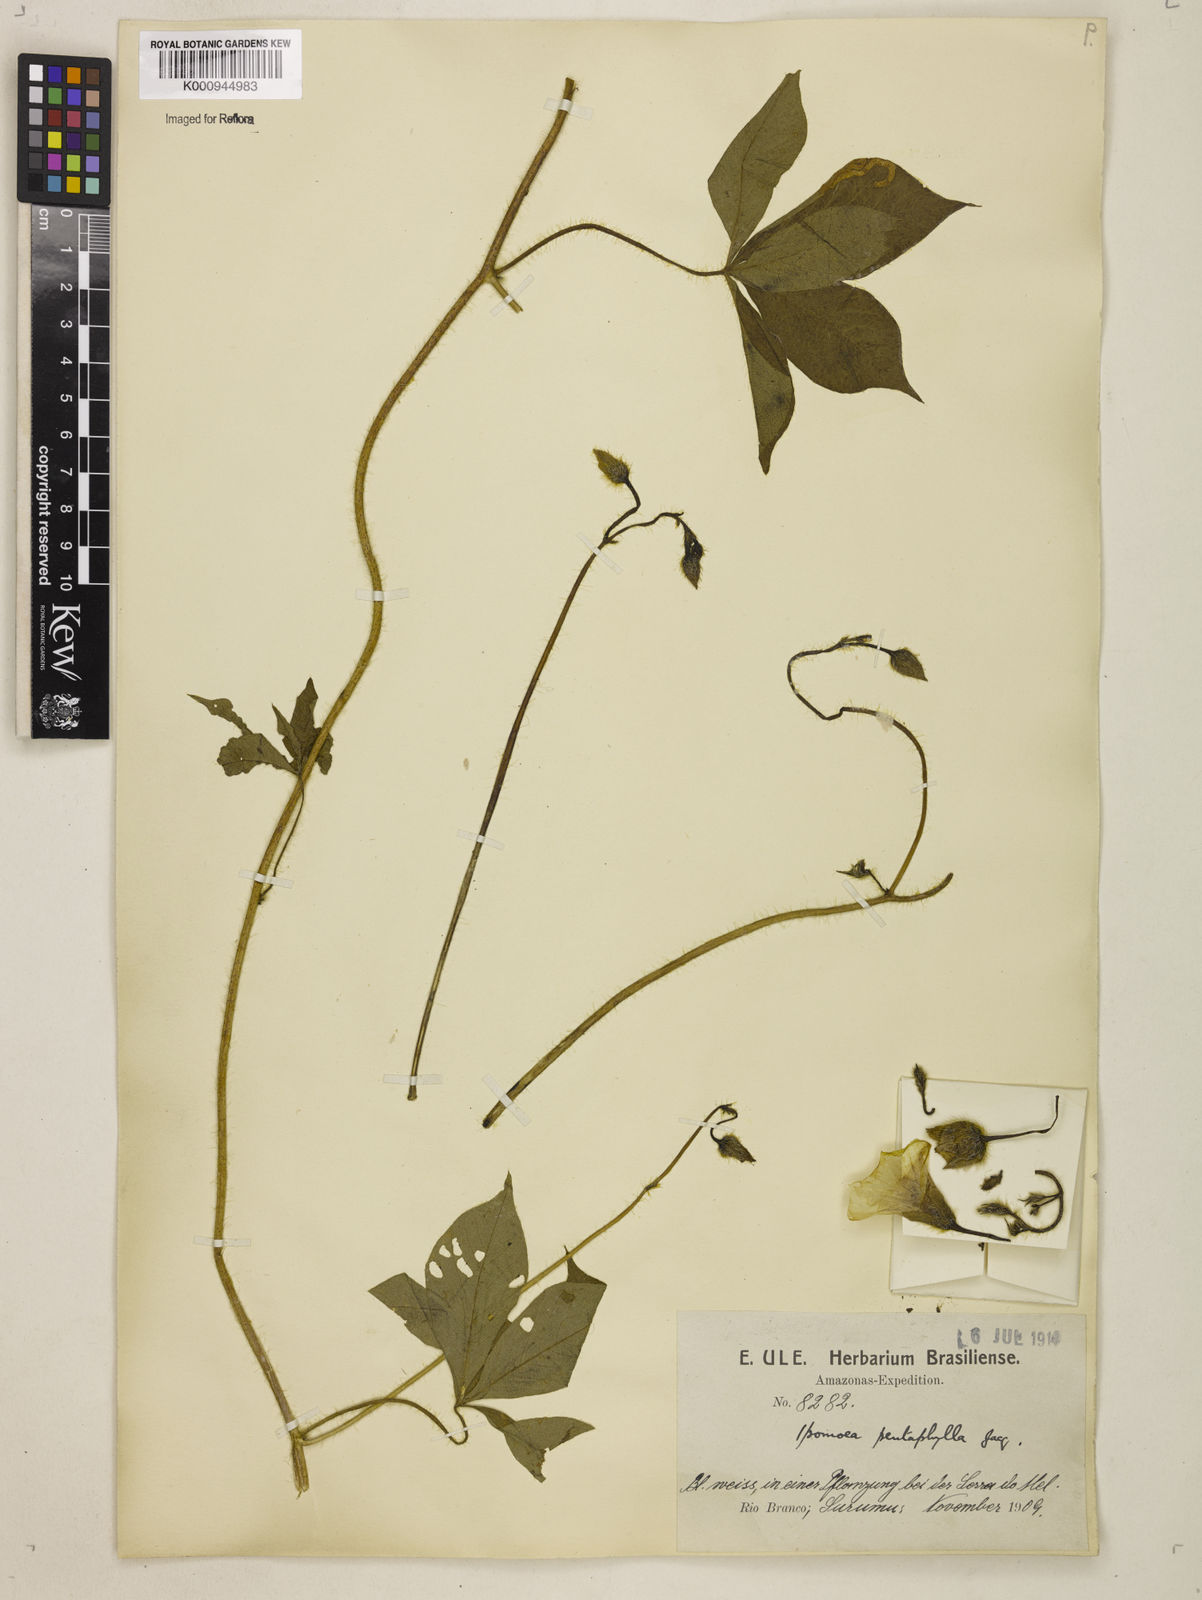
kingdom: Plantae
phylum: Tracheophyta
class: Magnoliopsida
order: Solanales
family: Convolvulaceae
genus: Distimake
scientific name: Distimake aegyptius
